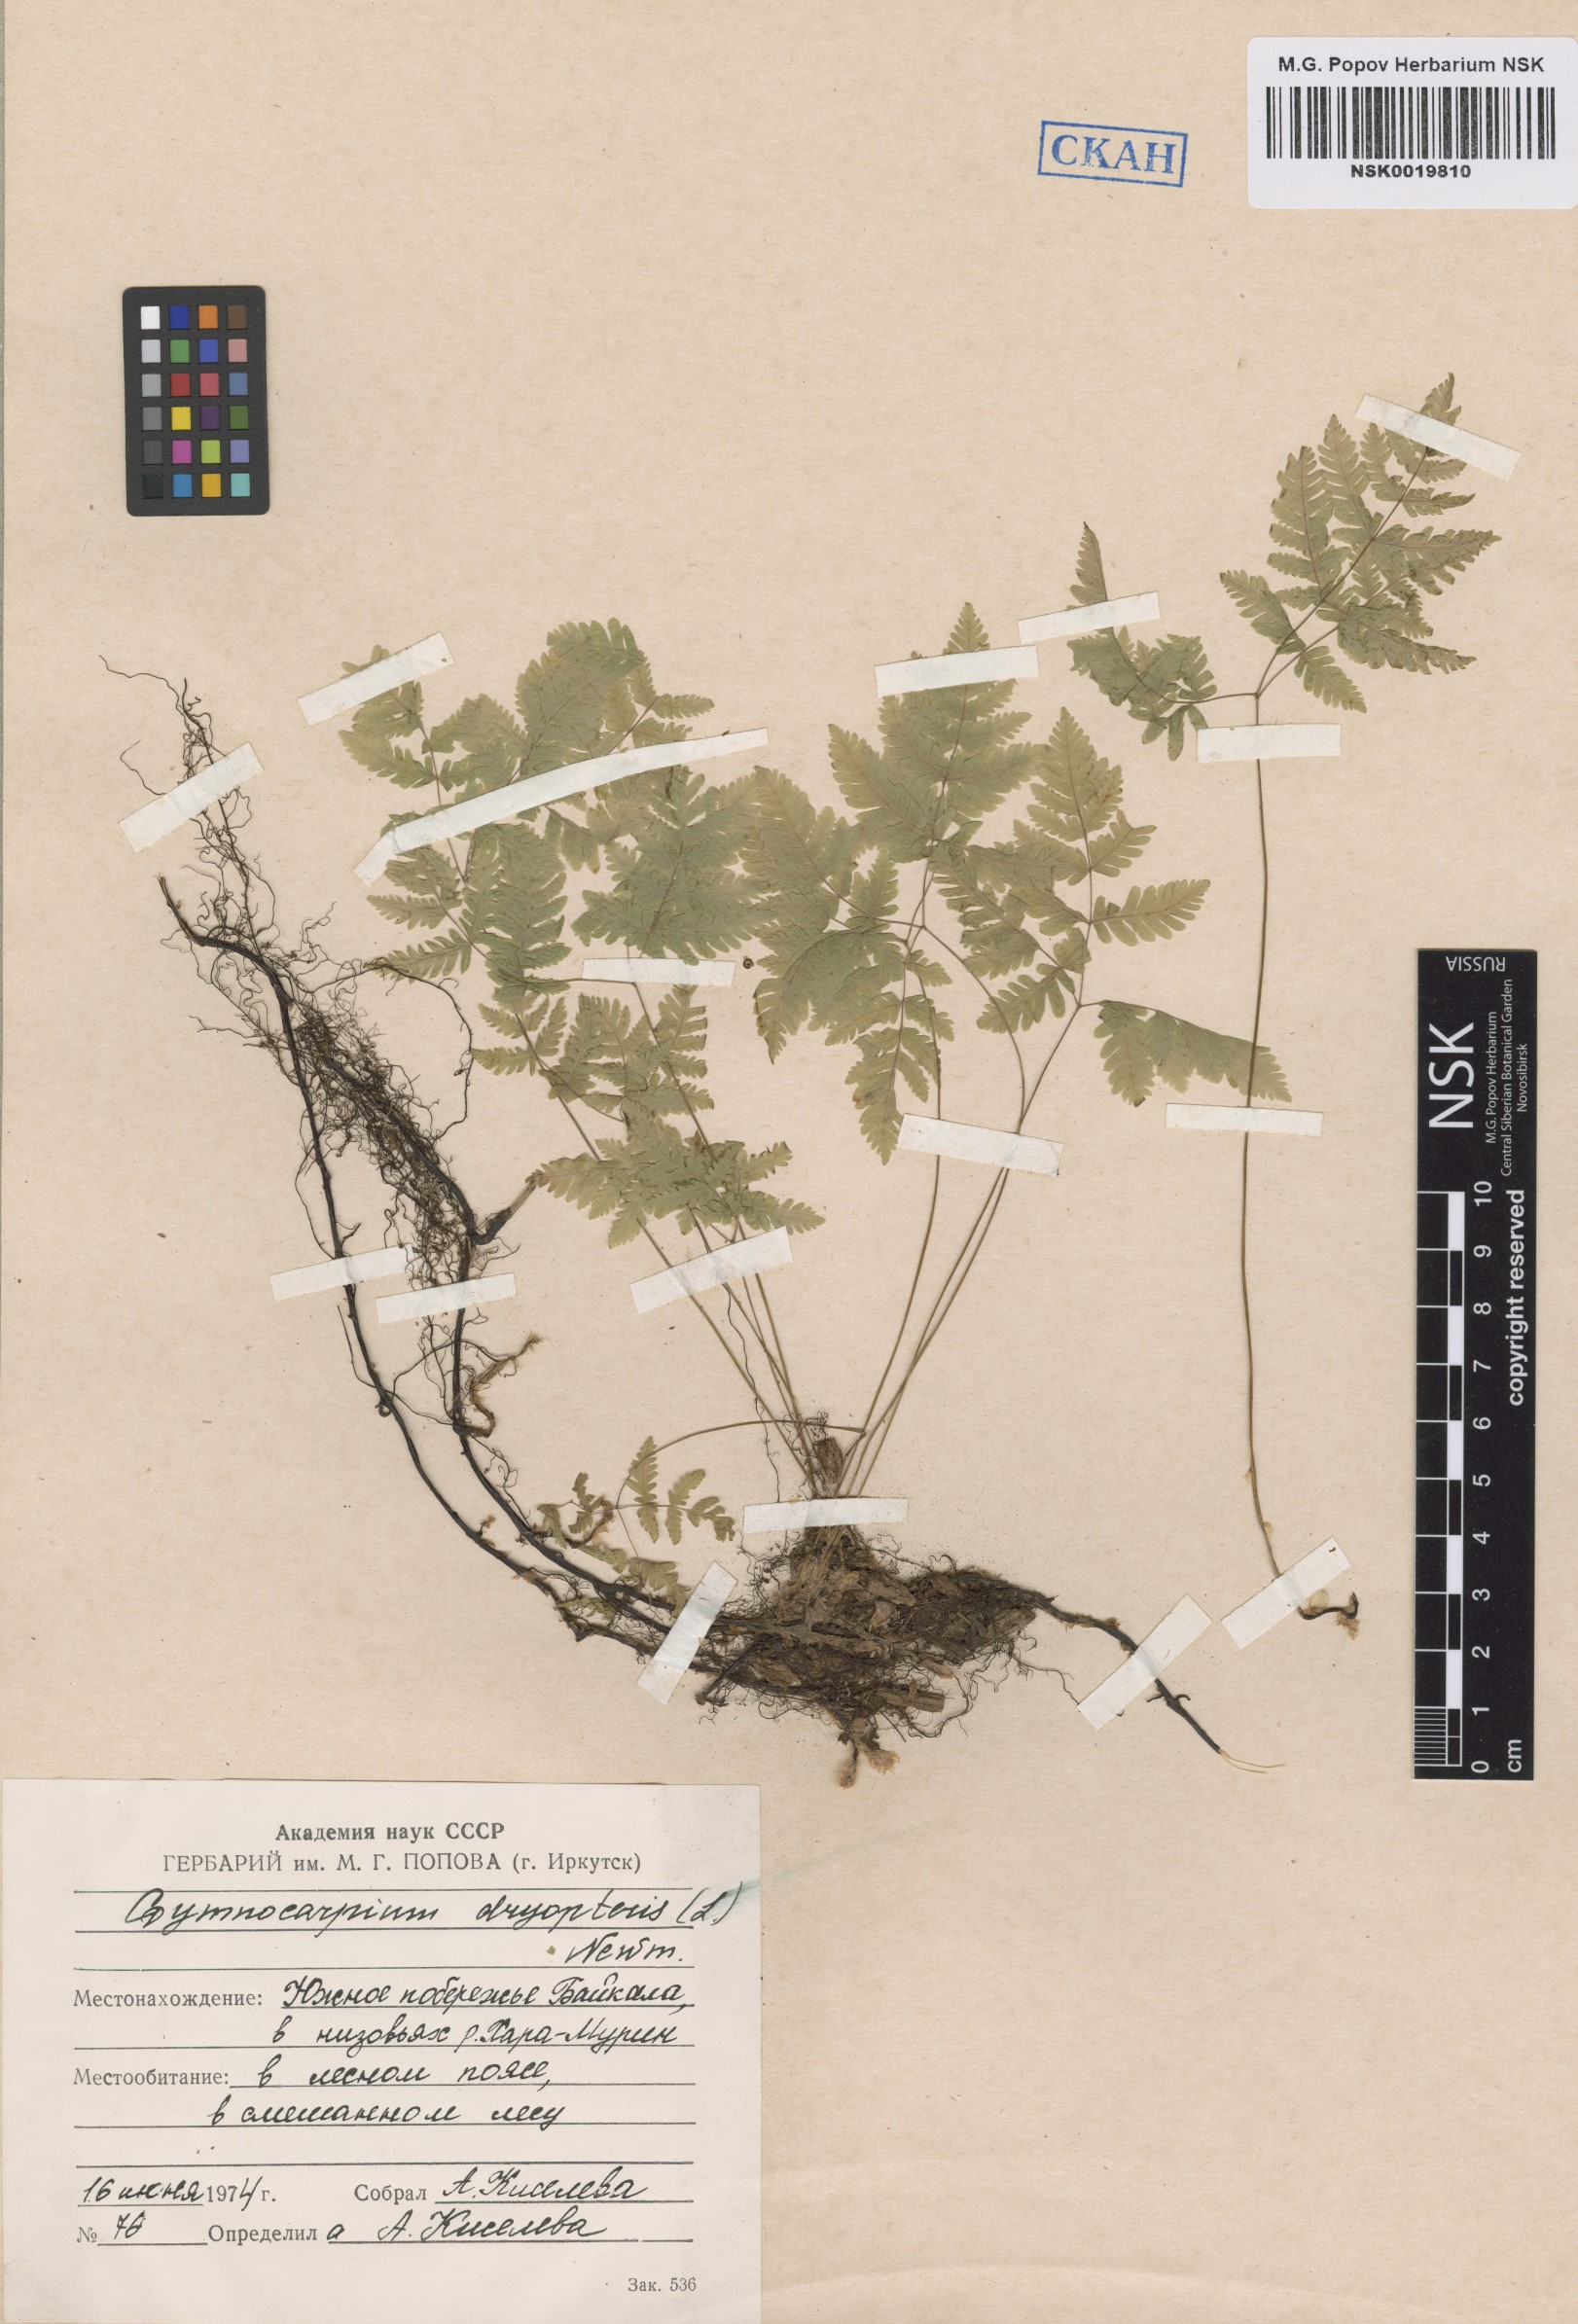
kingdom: Plantae
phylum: Tracheophyta
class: Polypodiopsida
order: Polypodiales
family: Cystopteridaceae
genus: Gymnocarpium
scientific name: Gymnocarpium dryopteris
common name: Oak fern
